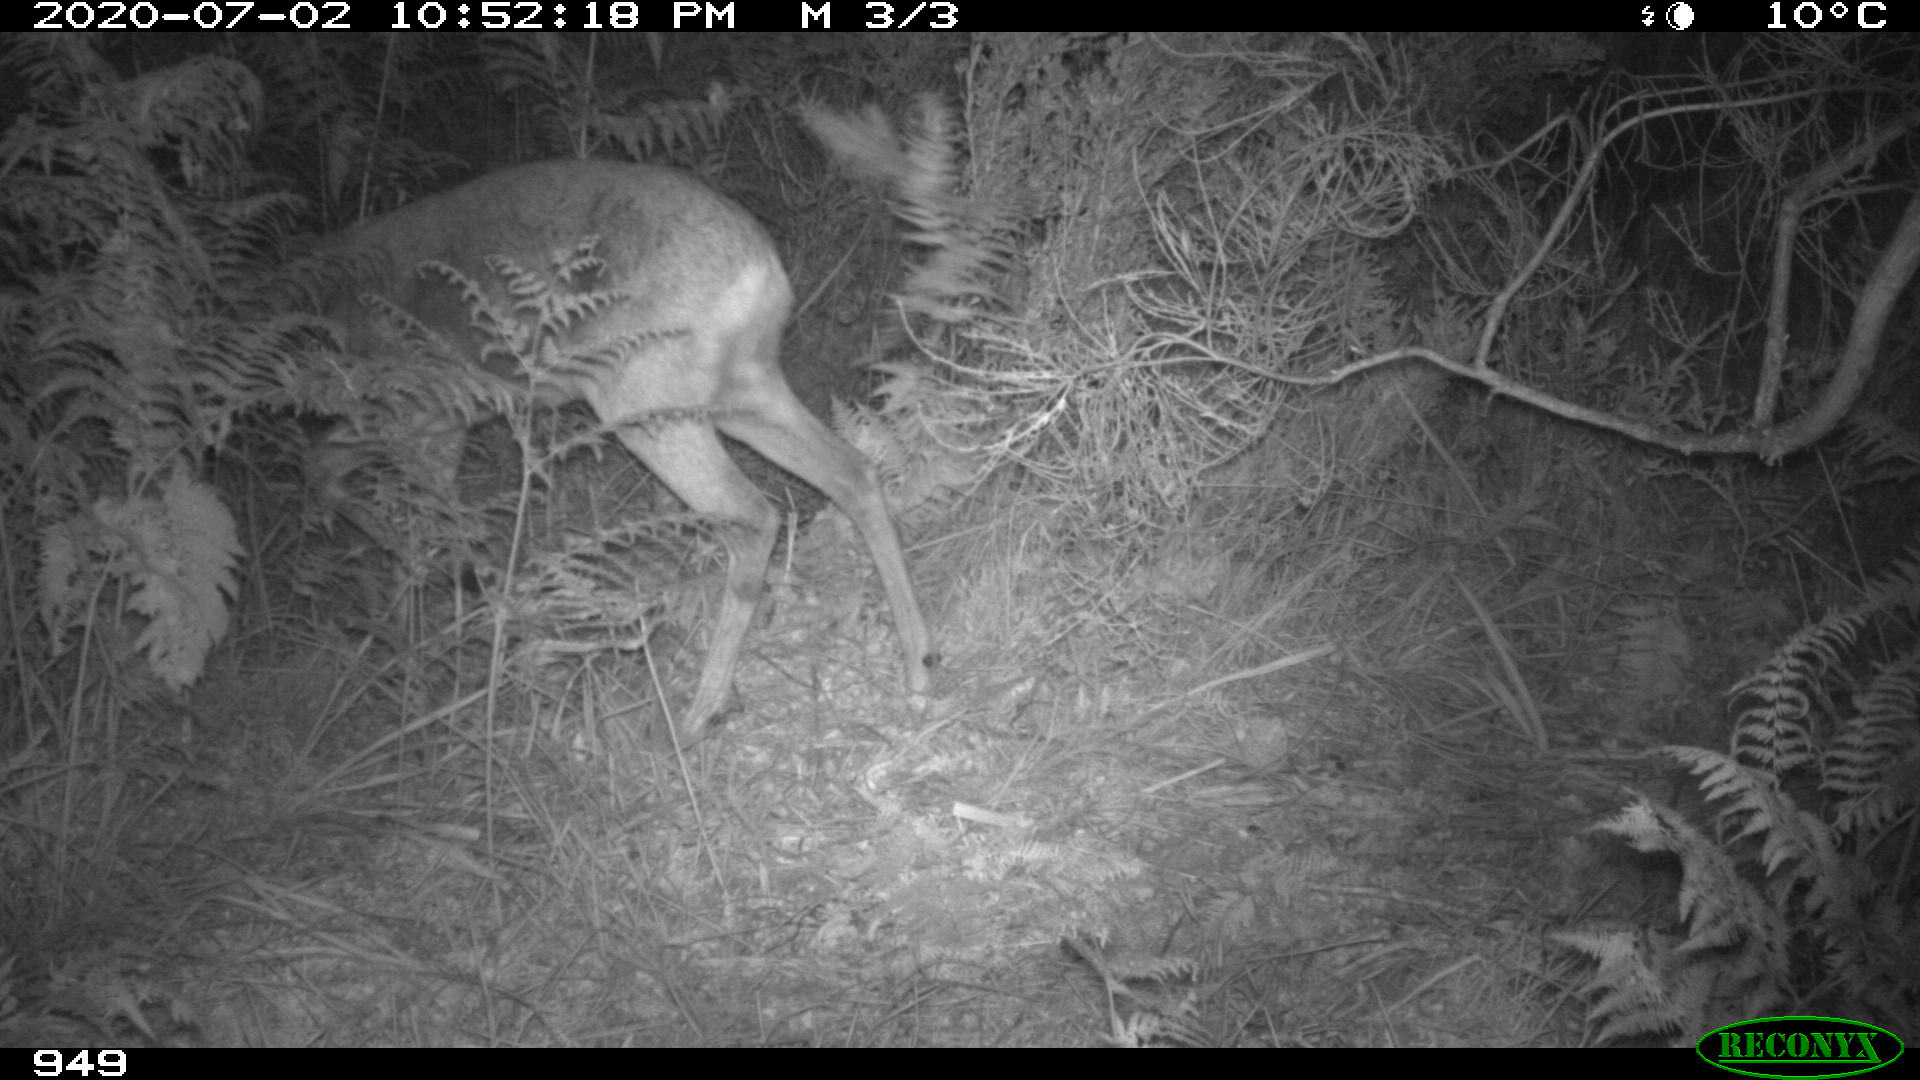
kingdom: Animalia
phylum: Chordata
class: Mammalia
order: Artiodactyla
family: Cervidae
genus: Capreolus
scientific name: Capreolus capreolus
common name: Western roe deer
